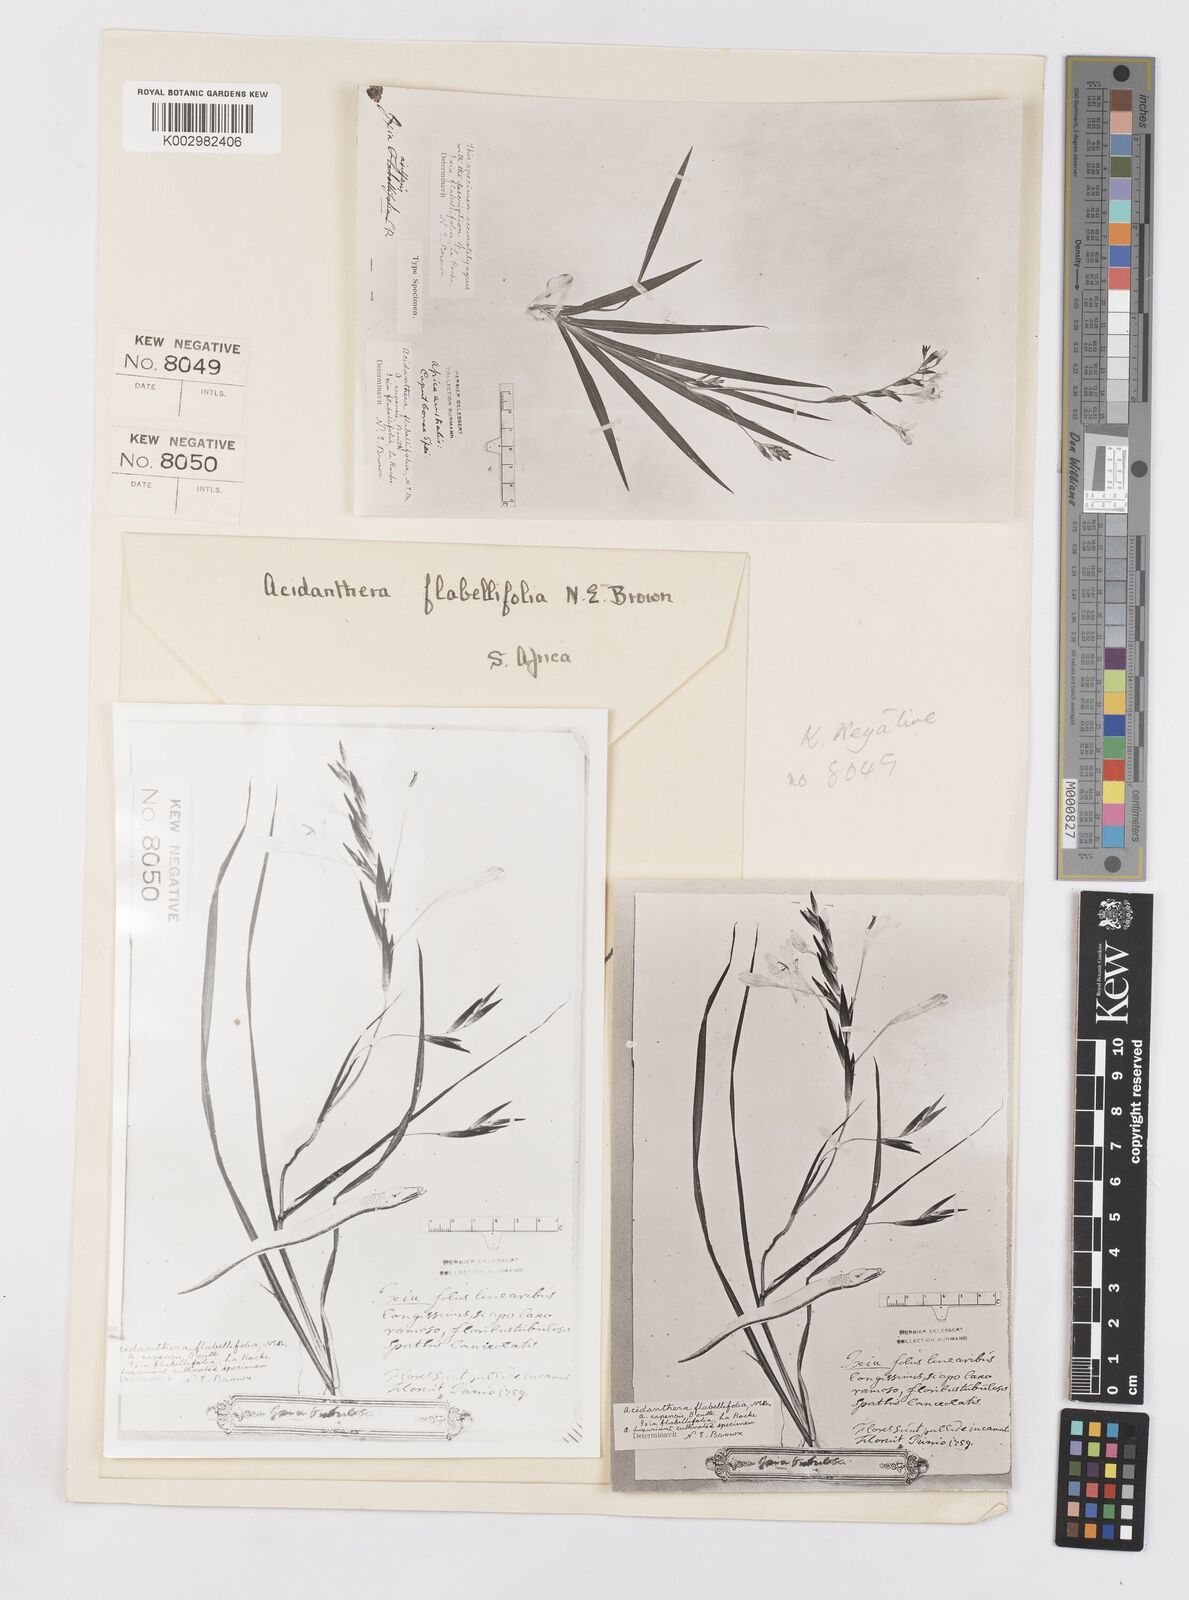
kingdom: Plantae
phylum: Tracheophyta
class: Liliopsida
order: Asparagales
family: Iridaceae
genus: Tritonia
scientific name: Tritonia flabellifolia
